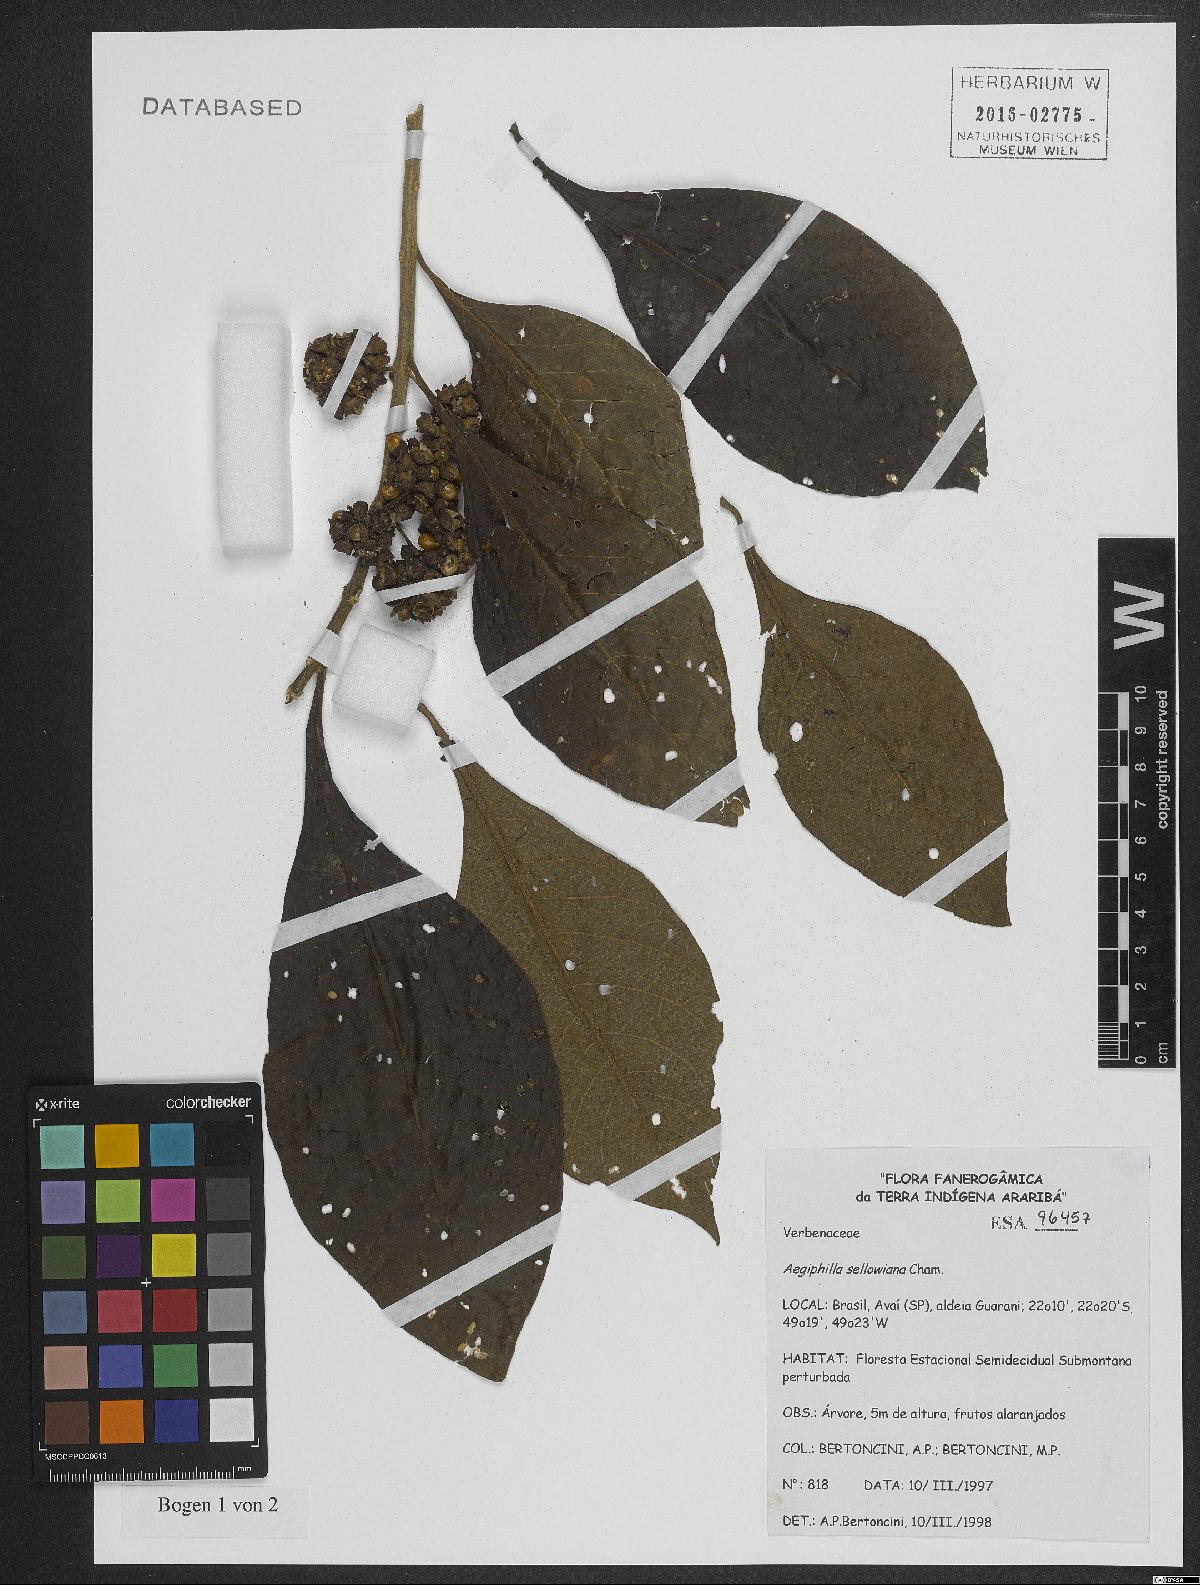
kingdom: Plantae
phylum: Tracheophyta
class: Magnoliopsida
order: Lamiales
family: Lamiaceae
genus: Aegiphila
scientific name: Aegiphila verticillata
